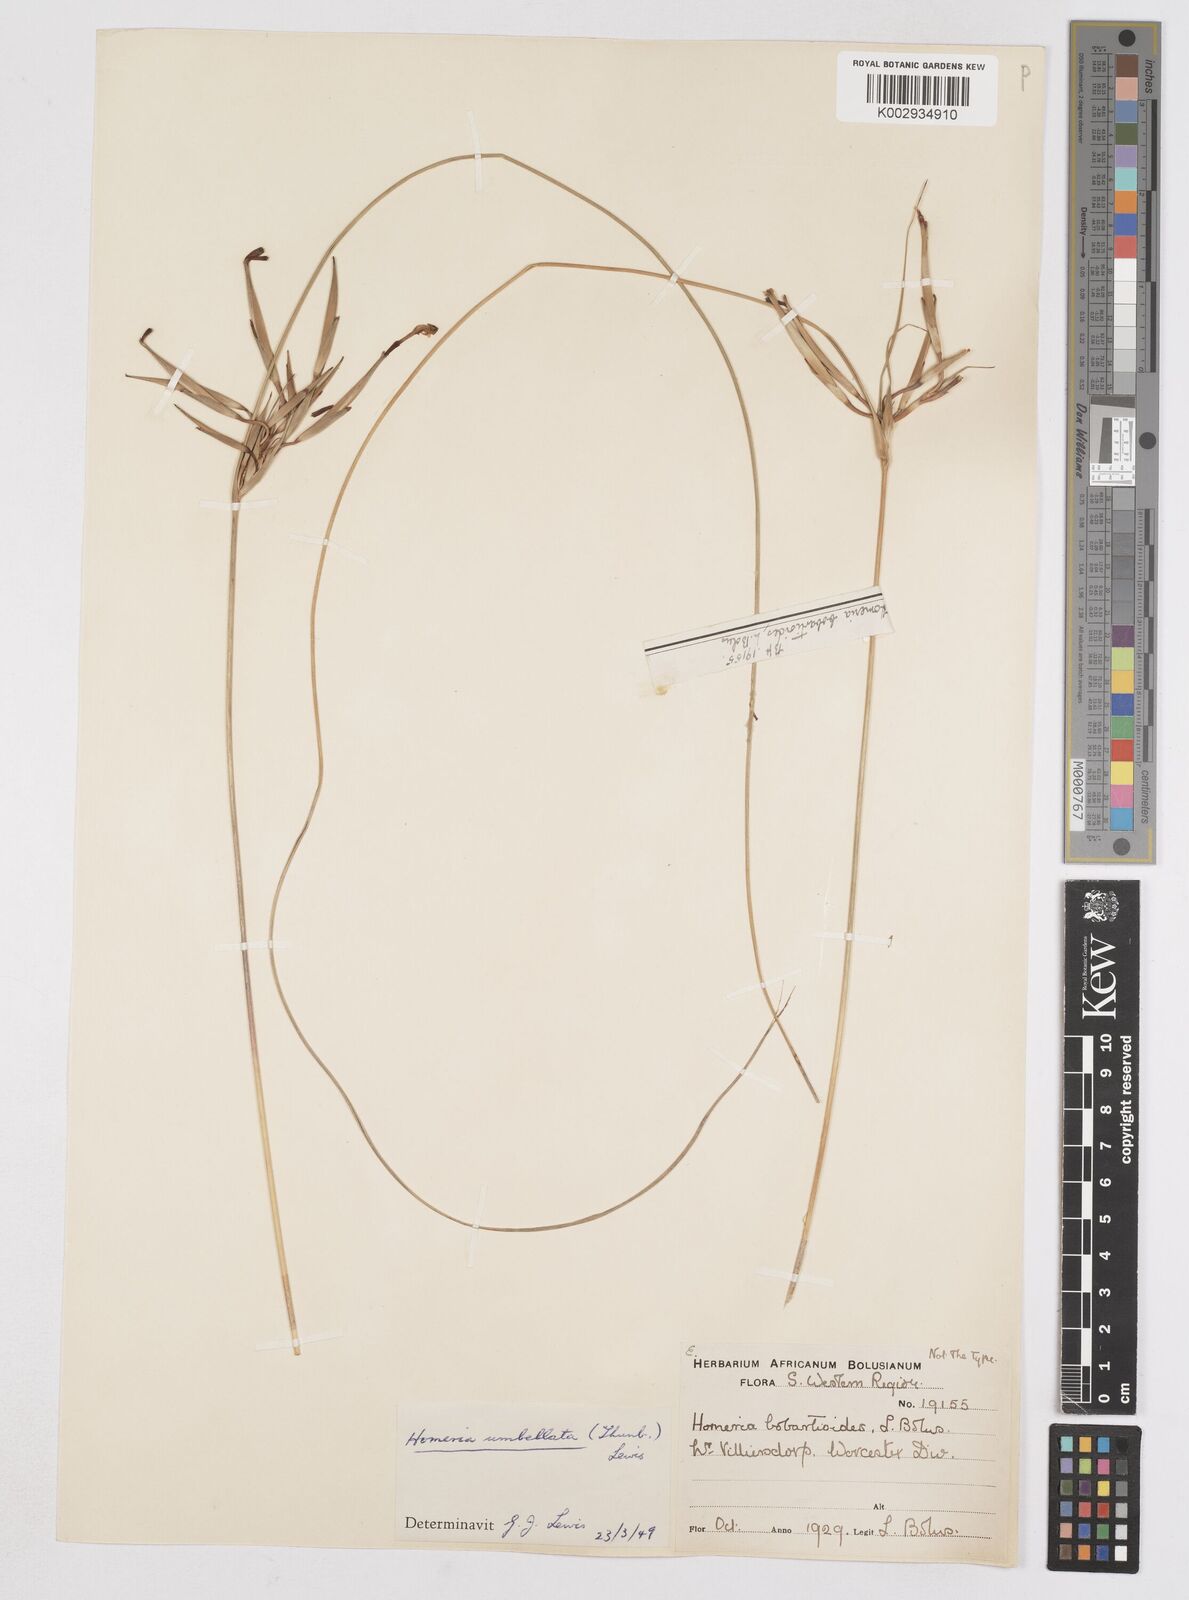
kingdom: Plantae
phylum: Tracheophyta
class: Liliopsida
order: Asparagales
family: Iridaceae
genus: Moraea
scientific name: Moraea umbellata
